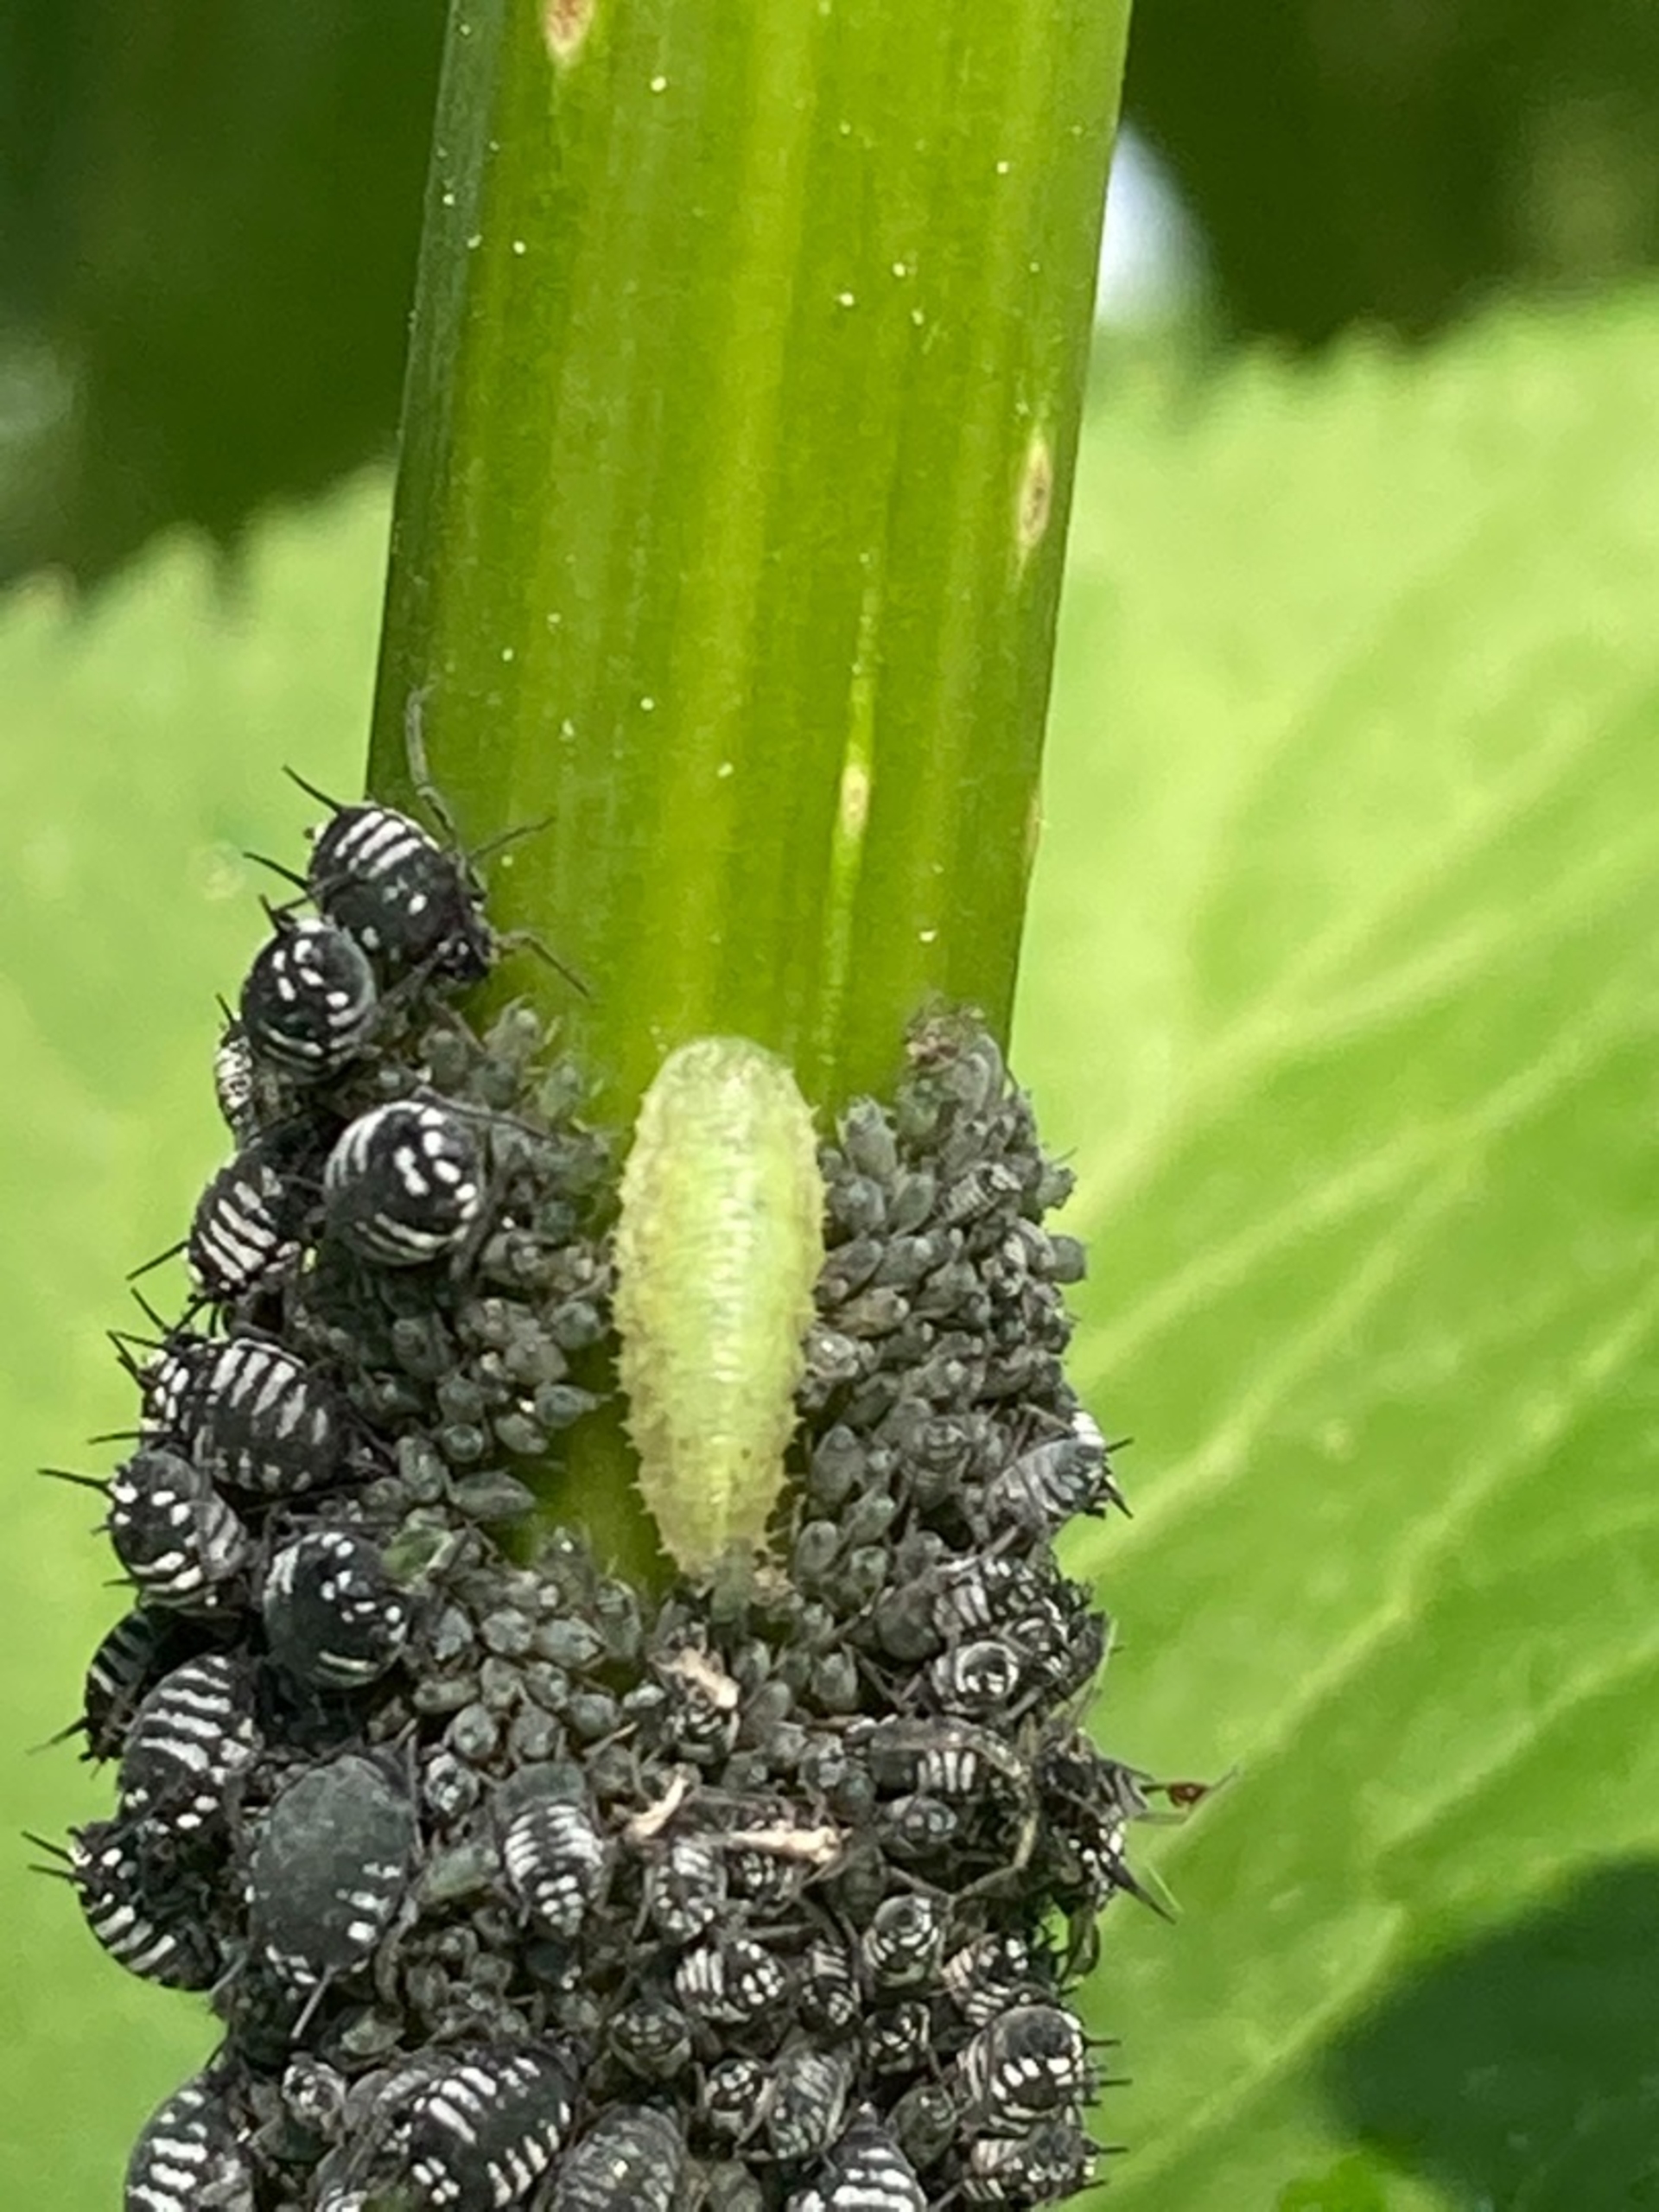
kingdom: Animalia
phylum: Arthropoda
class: Insecta
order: Hemiptera
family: Aphididae
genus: Aphis
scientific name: Aphis sambuci
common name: Hyldebladlus
